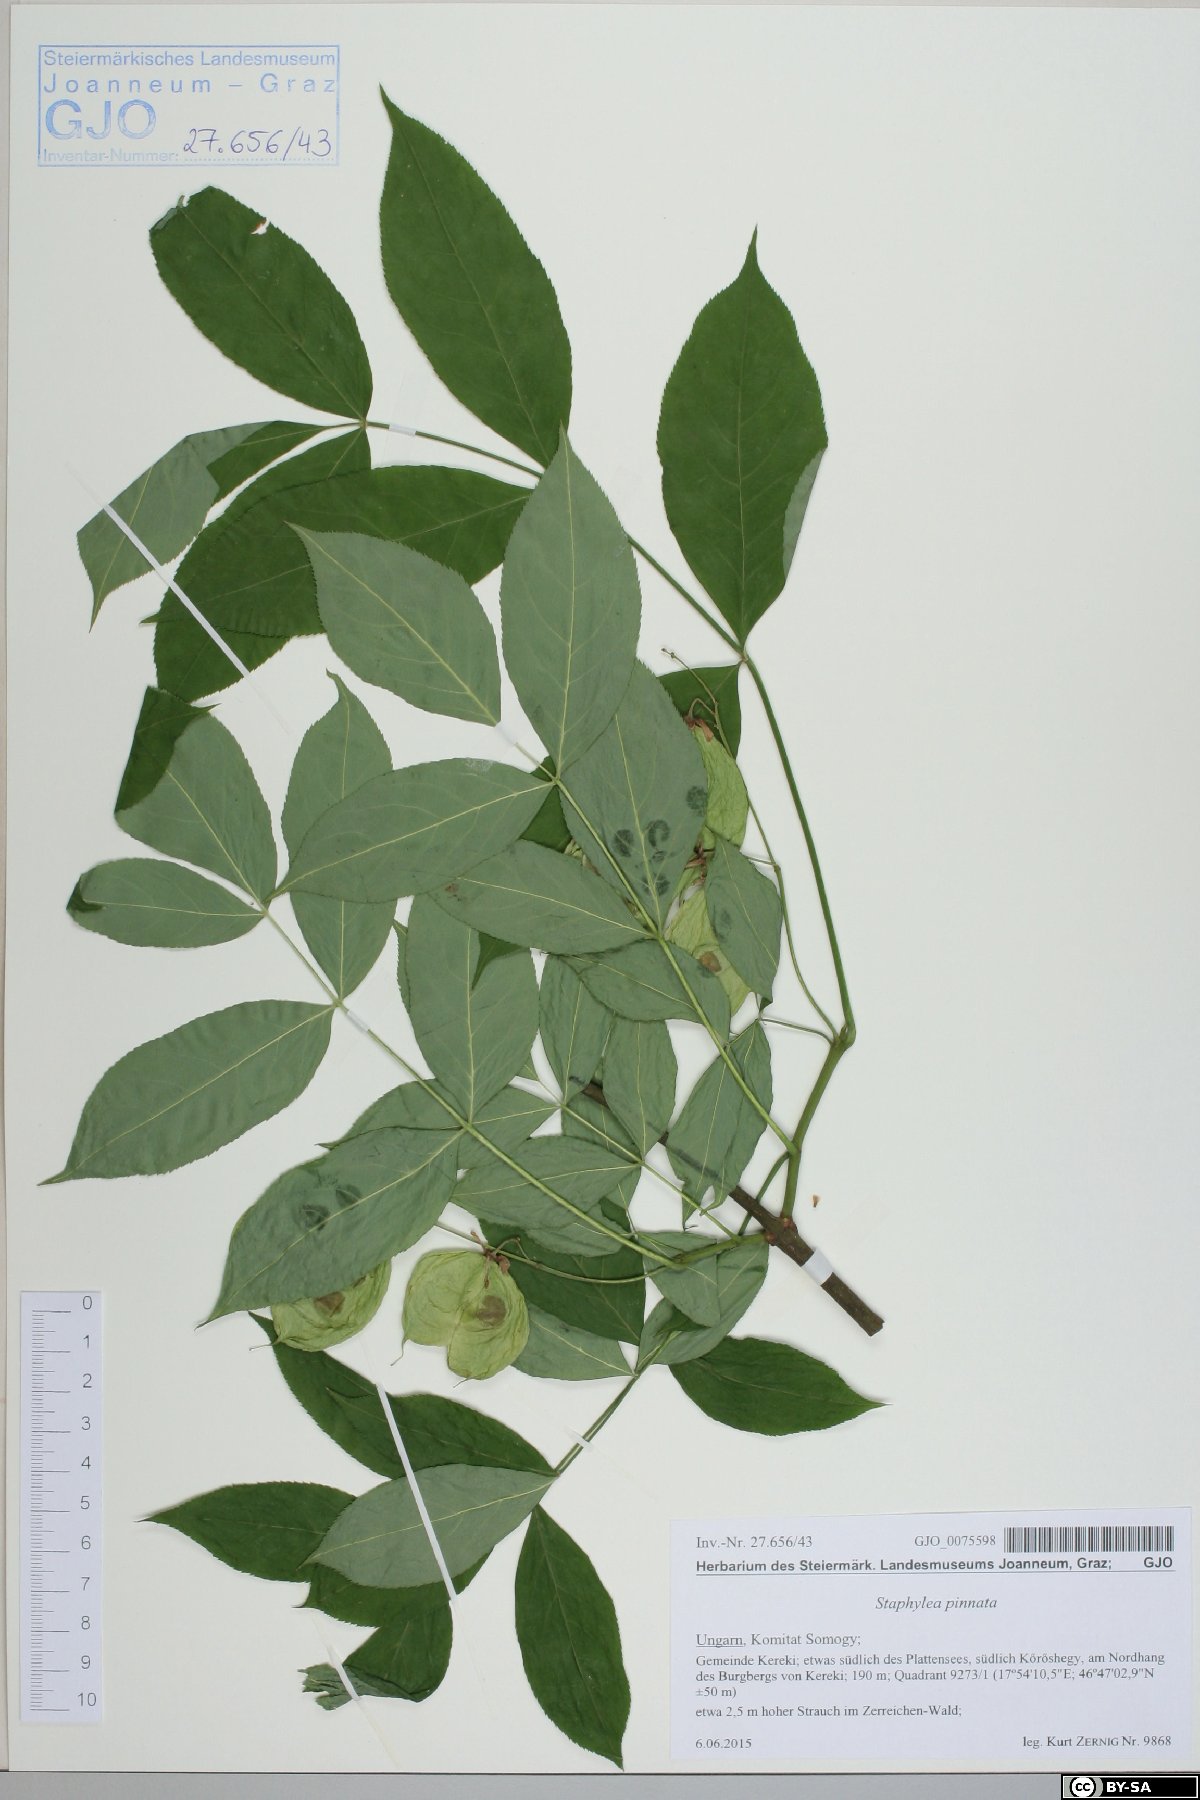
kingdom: Plantae
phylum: Tracheophyta
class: Magnoliopsida
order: Crossosomatales
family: Staphyleaceae
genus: Staphylea
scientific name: Staphylea pinnata
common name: Bladdernut
